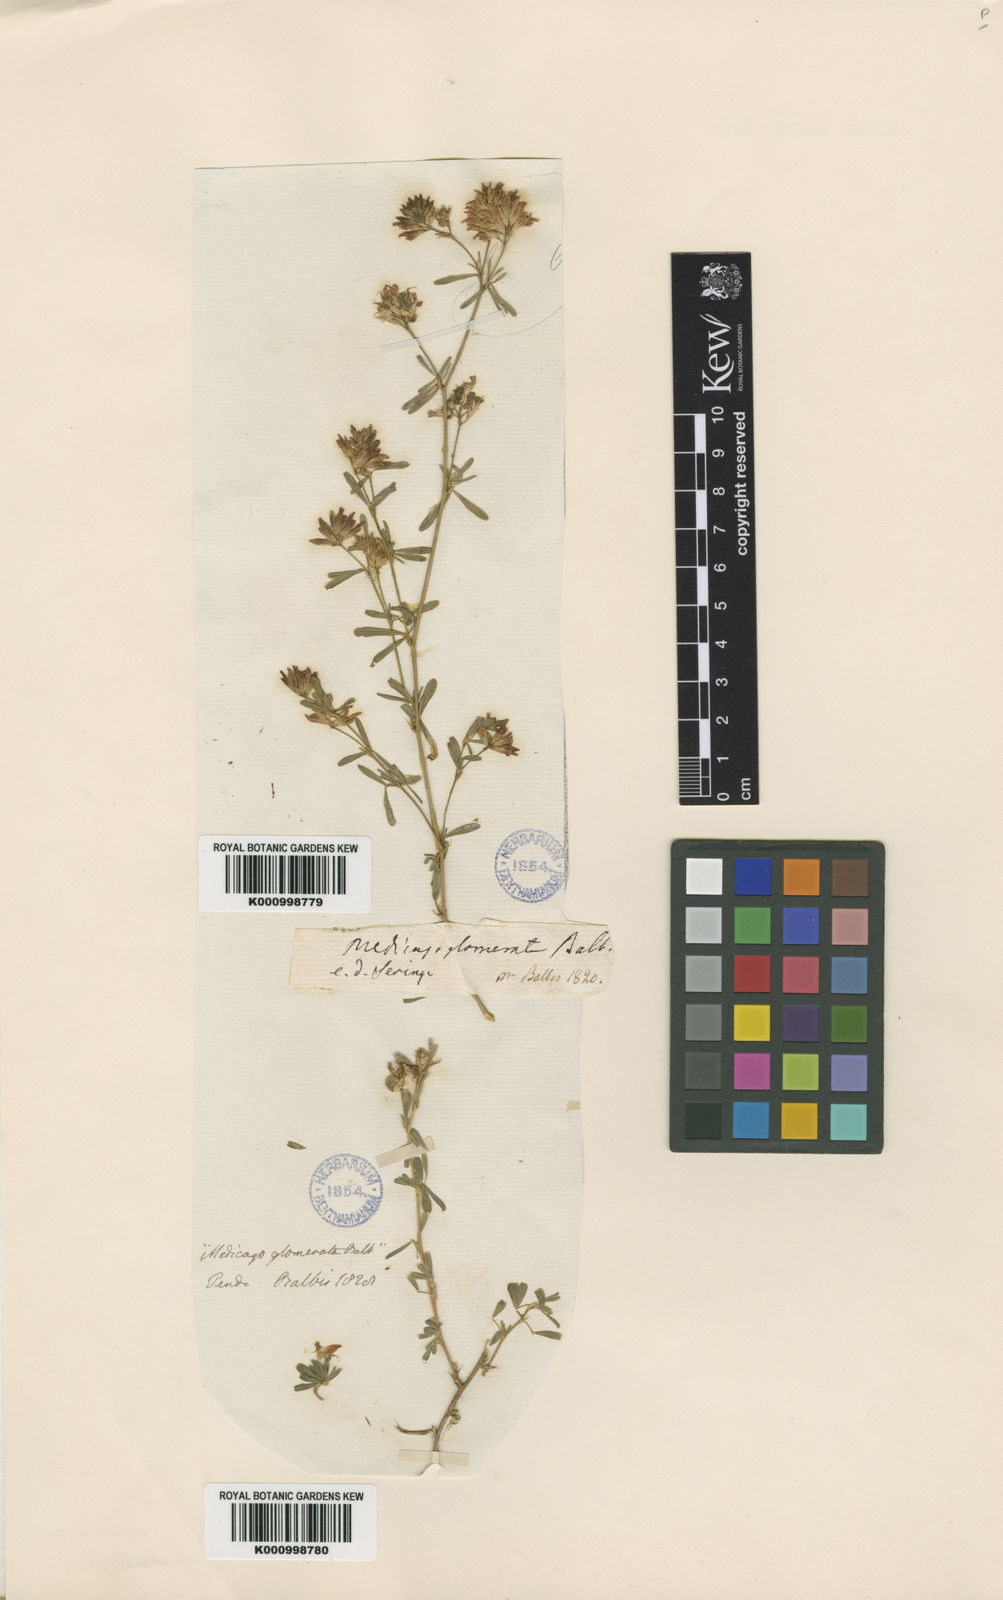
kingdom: Plantae
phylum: Tracheophyta
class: Magnoliopsida
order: Fabales
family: Fabaceae
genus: Medicago
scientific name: Medicago sativa
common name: Alfalfa
